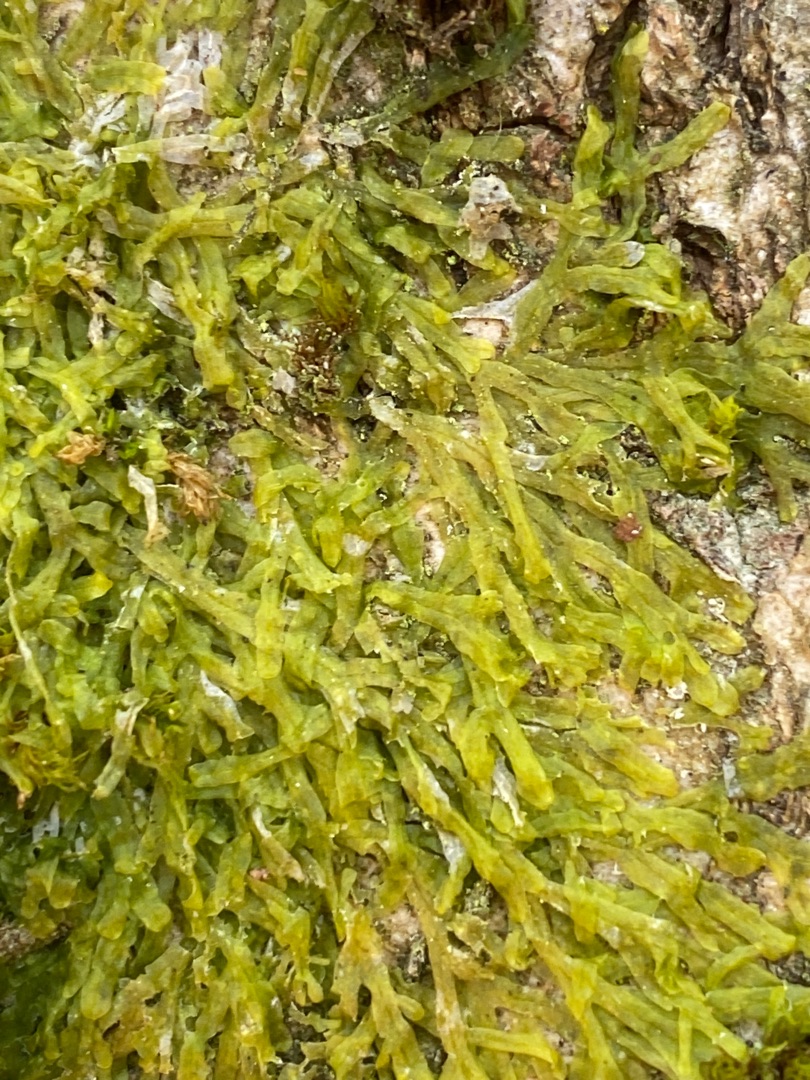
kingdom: Plantae
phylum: Marchantiophyta
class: Jungermanniopsida
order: Metzgeriales
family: Metzgeriaceae
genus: Metzgeria
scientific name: Metzgeria furcata
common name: Almindelig gaffelløv
